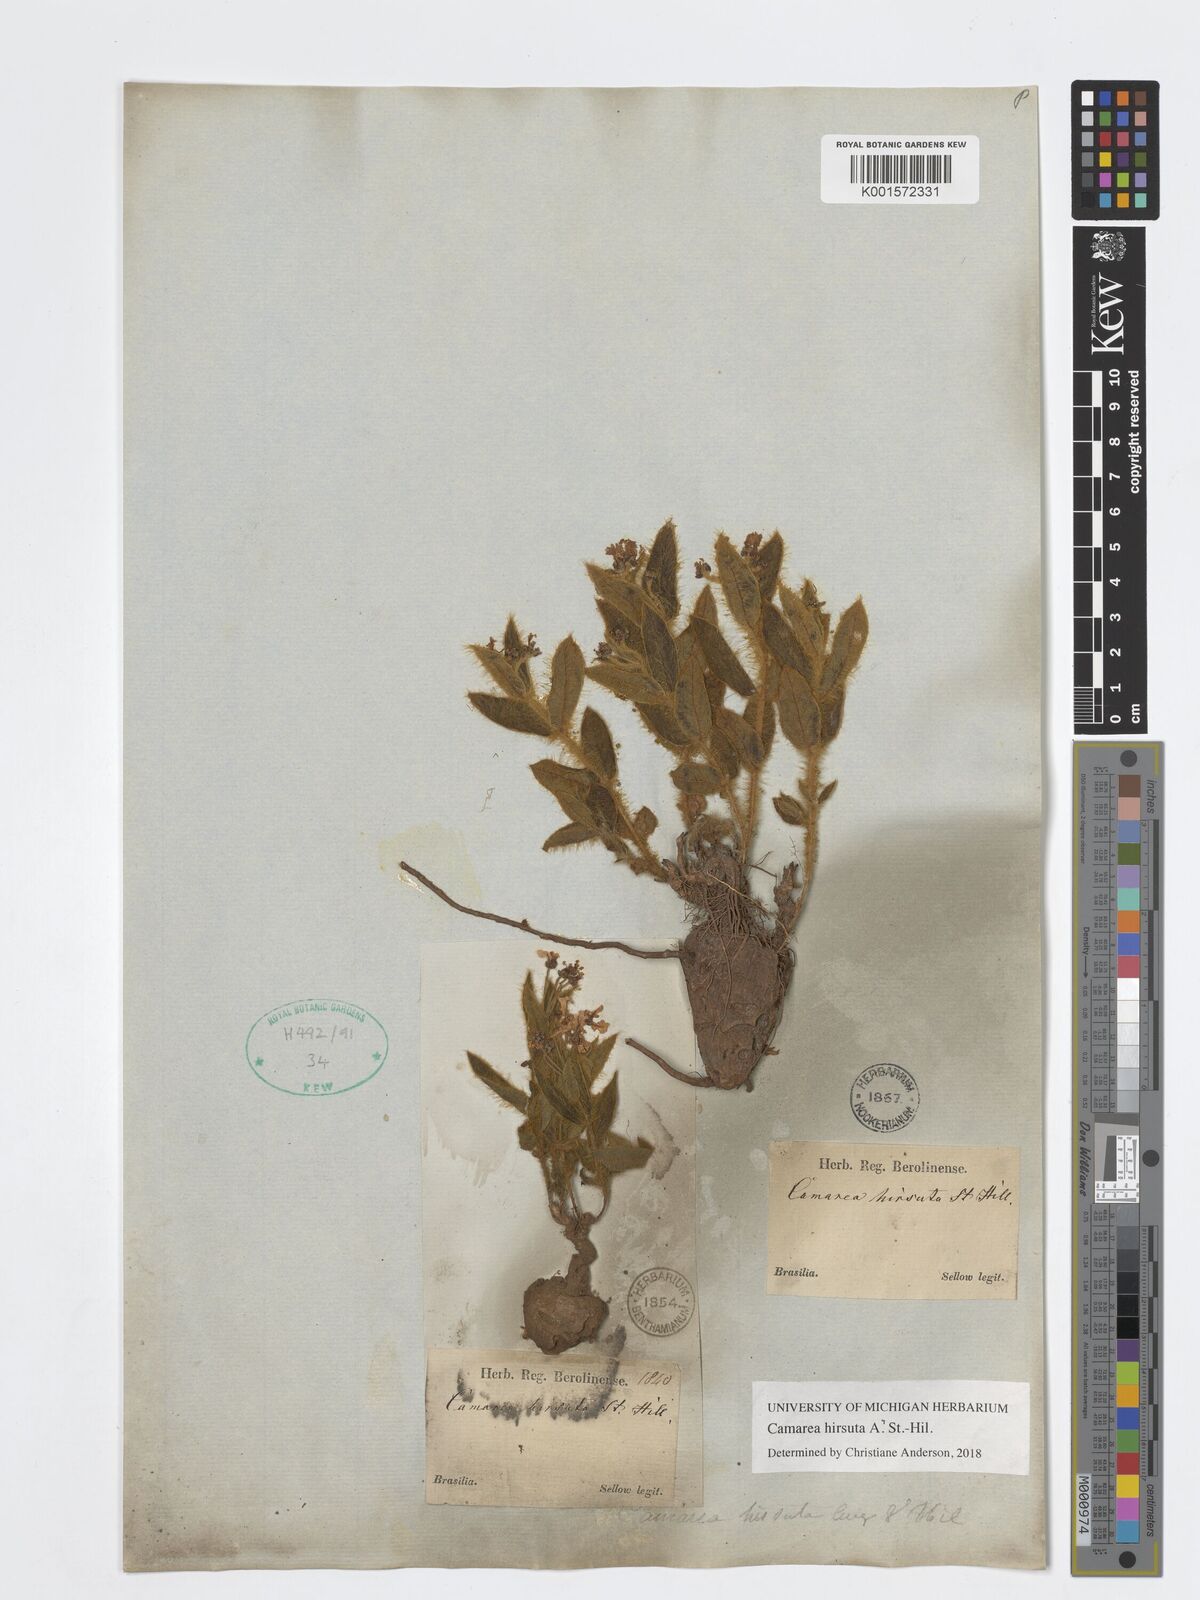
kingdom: Plantae
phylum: Tracheophyta
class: Magnoliopsida
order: Malpighiales
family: Malpighiaceae
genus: Camarea
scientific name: Camarea hirsuta
